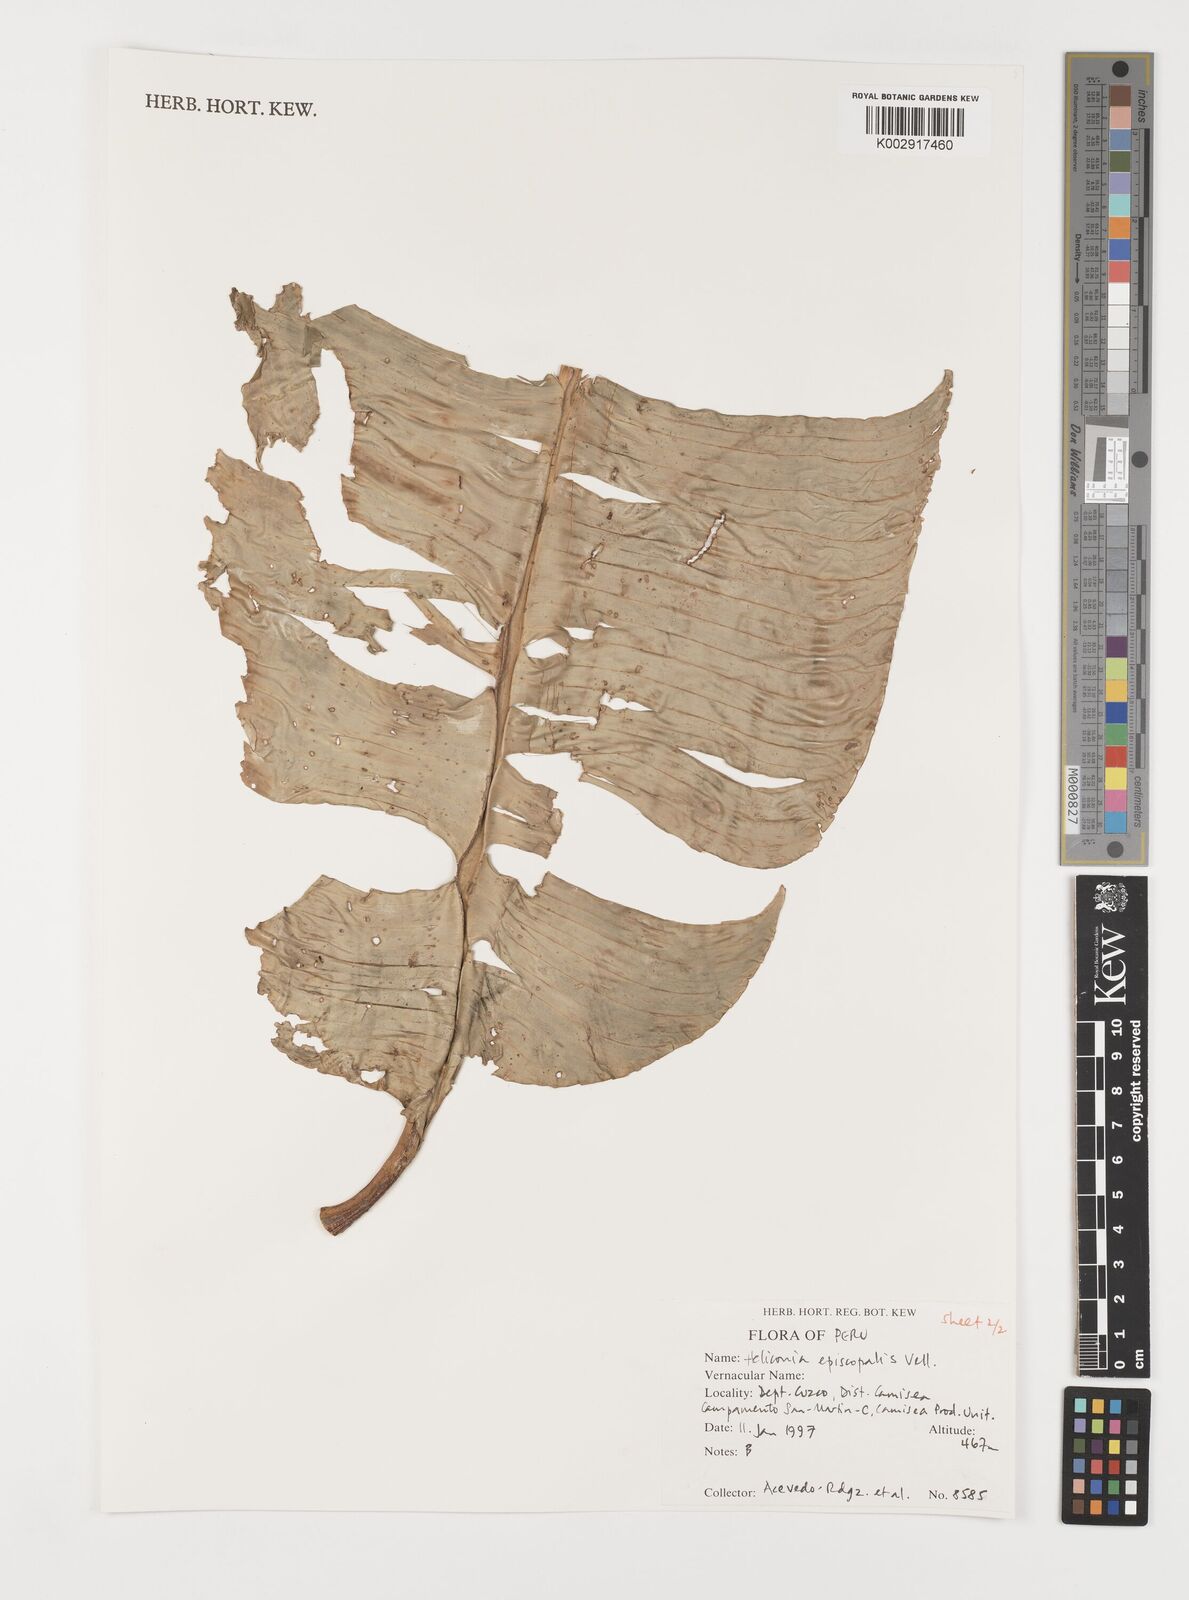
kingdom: Plantae
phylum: Tracheophyta
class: Liliopsida
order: Zingiberales
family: Heliconiaceae
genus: Heliconia
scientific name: Heliconia episcopalis
